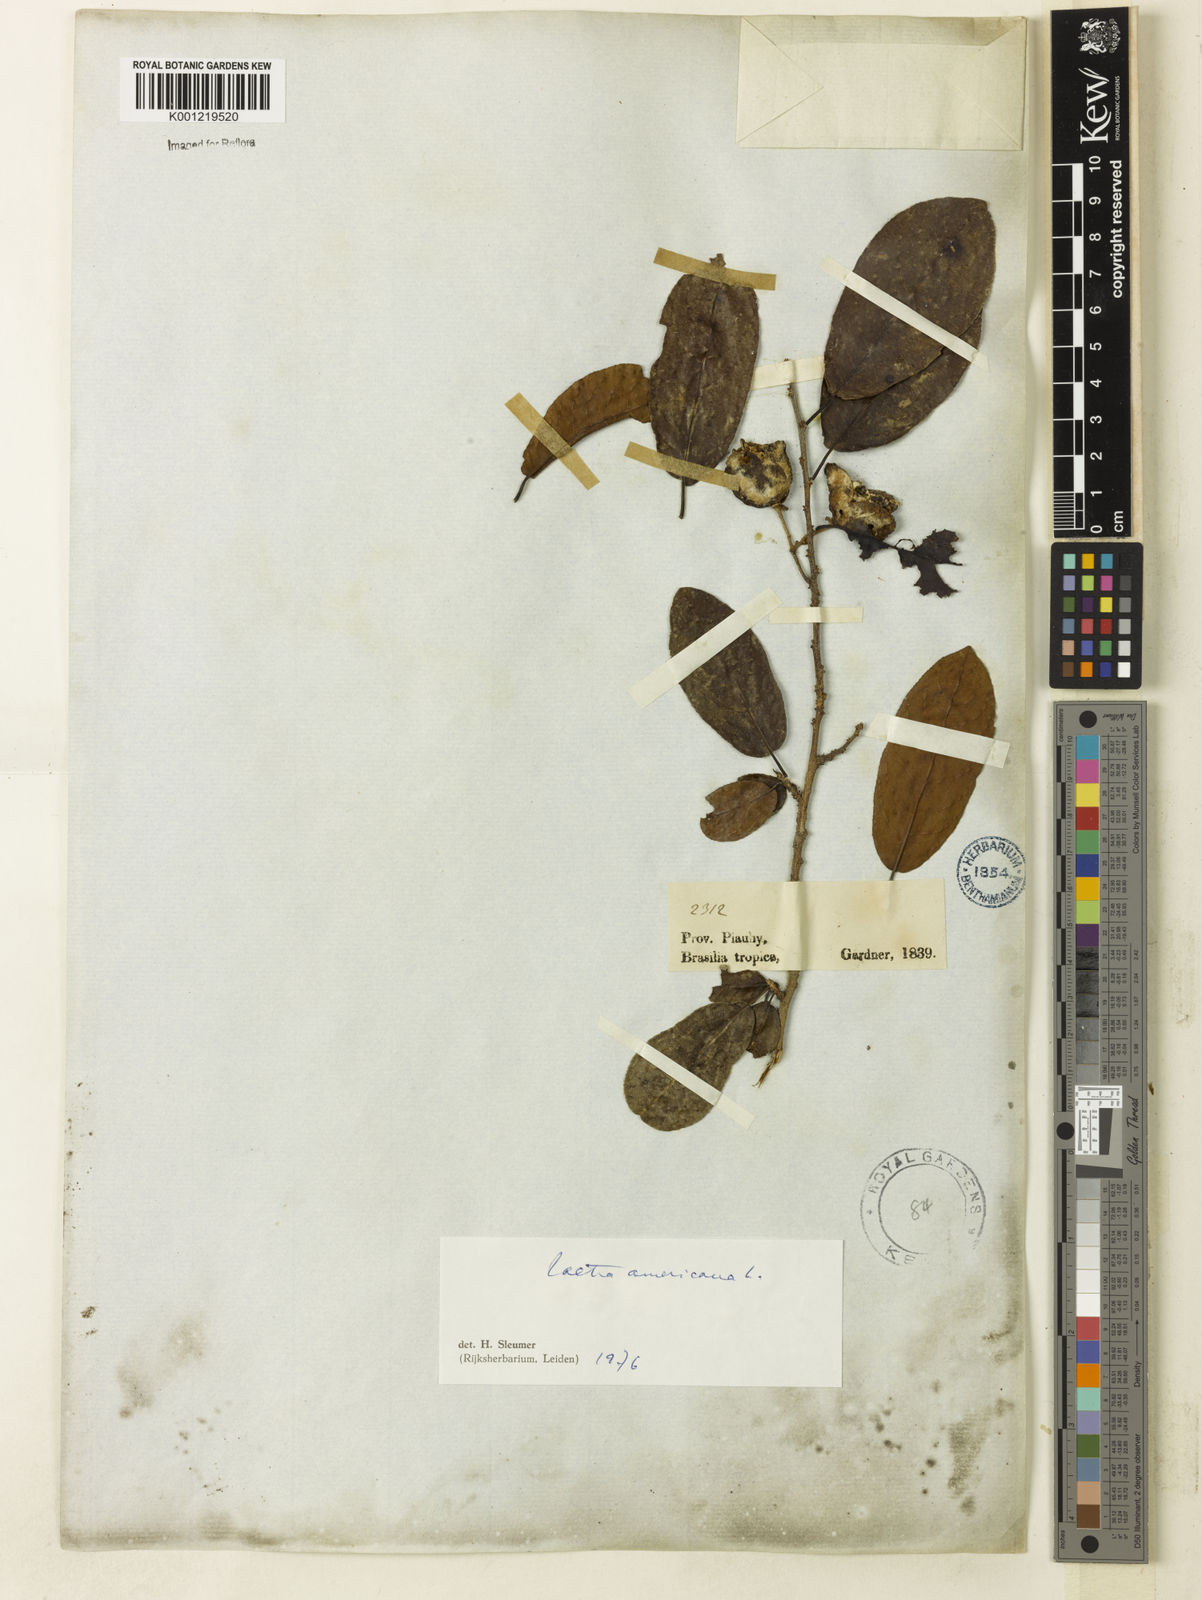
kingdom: Plantae
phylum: Tracheophyta
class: Magnoliopsida
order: Malpighiales
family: Salicaceae
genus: Casearia
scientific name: Casearia americana
